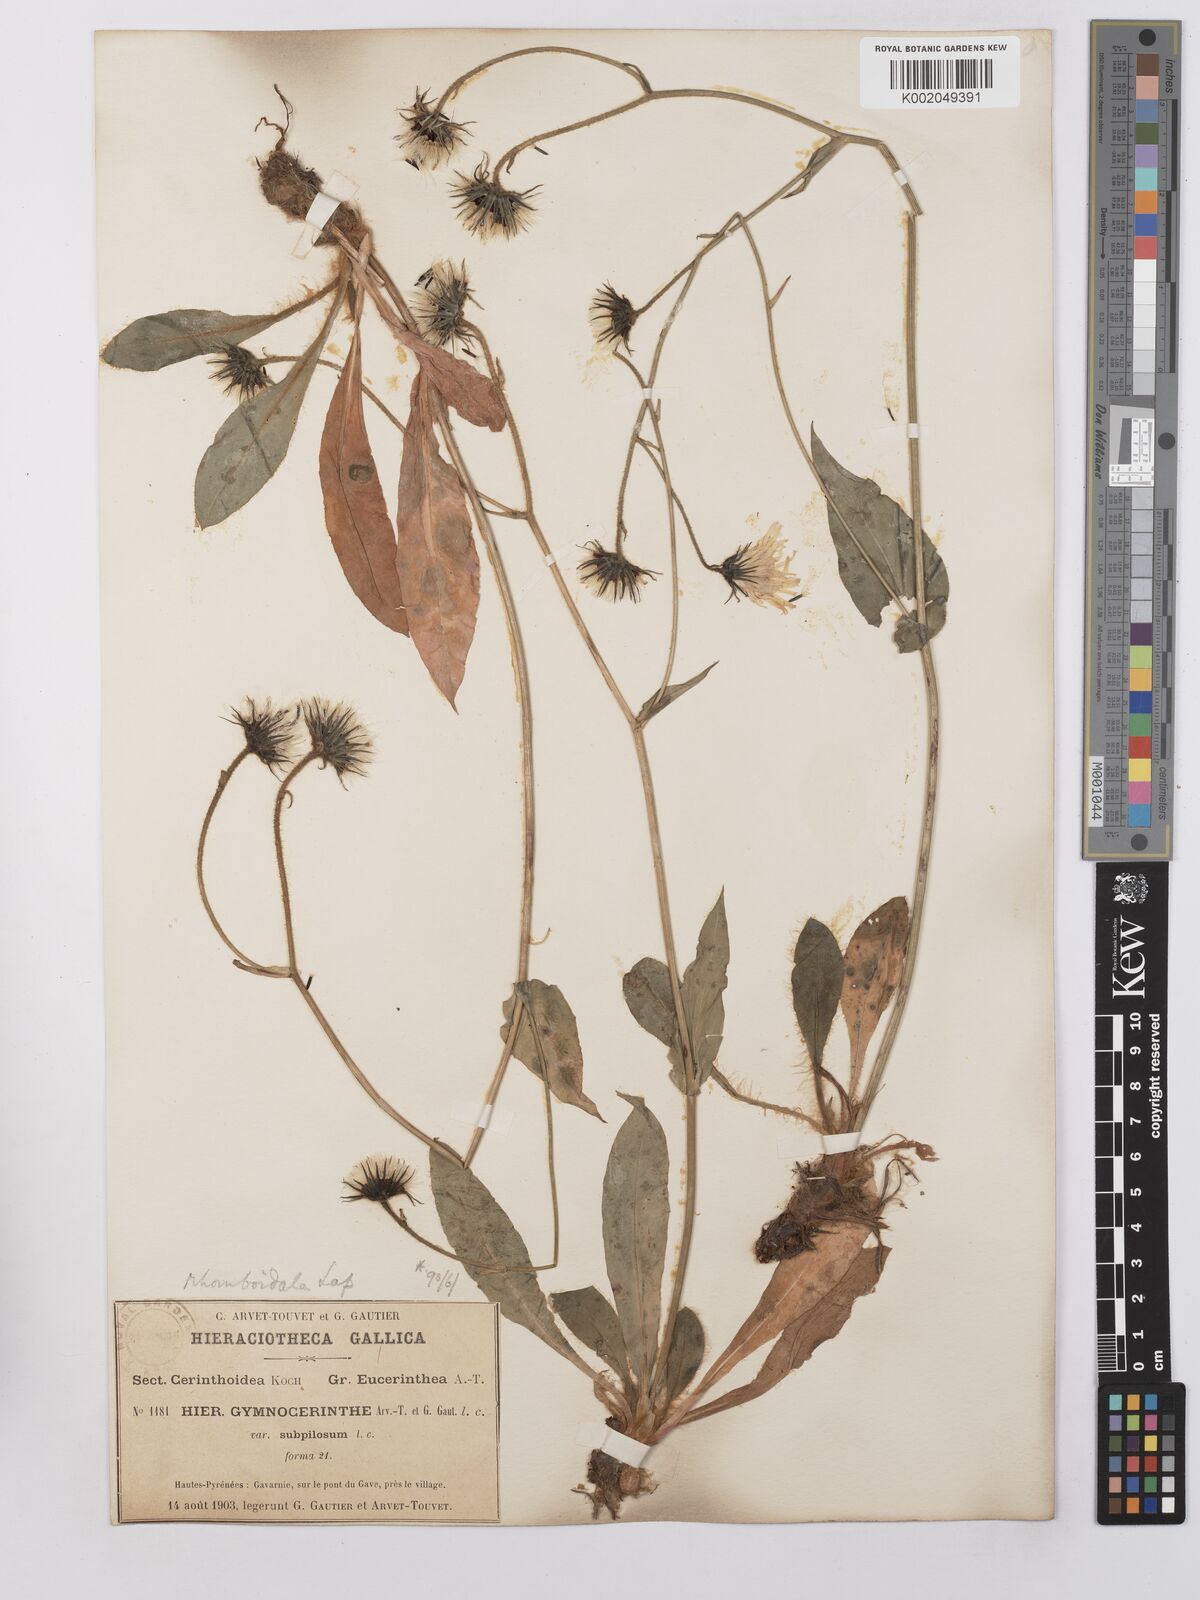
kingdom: Plantae
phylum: Tracheophyta
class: Magnoliopsida
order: Asterales
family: Asteraceae
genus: Hieracium
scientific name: Hieracium cerinthoides
